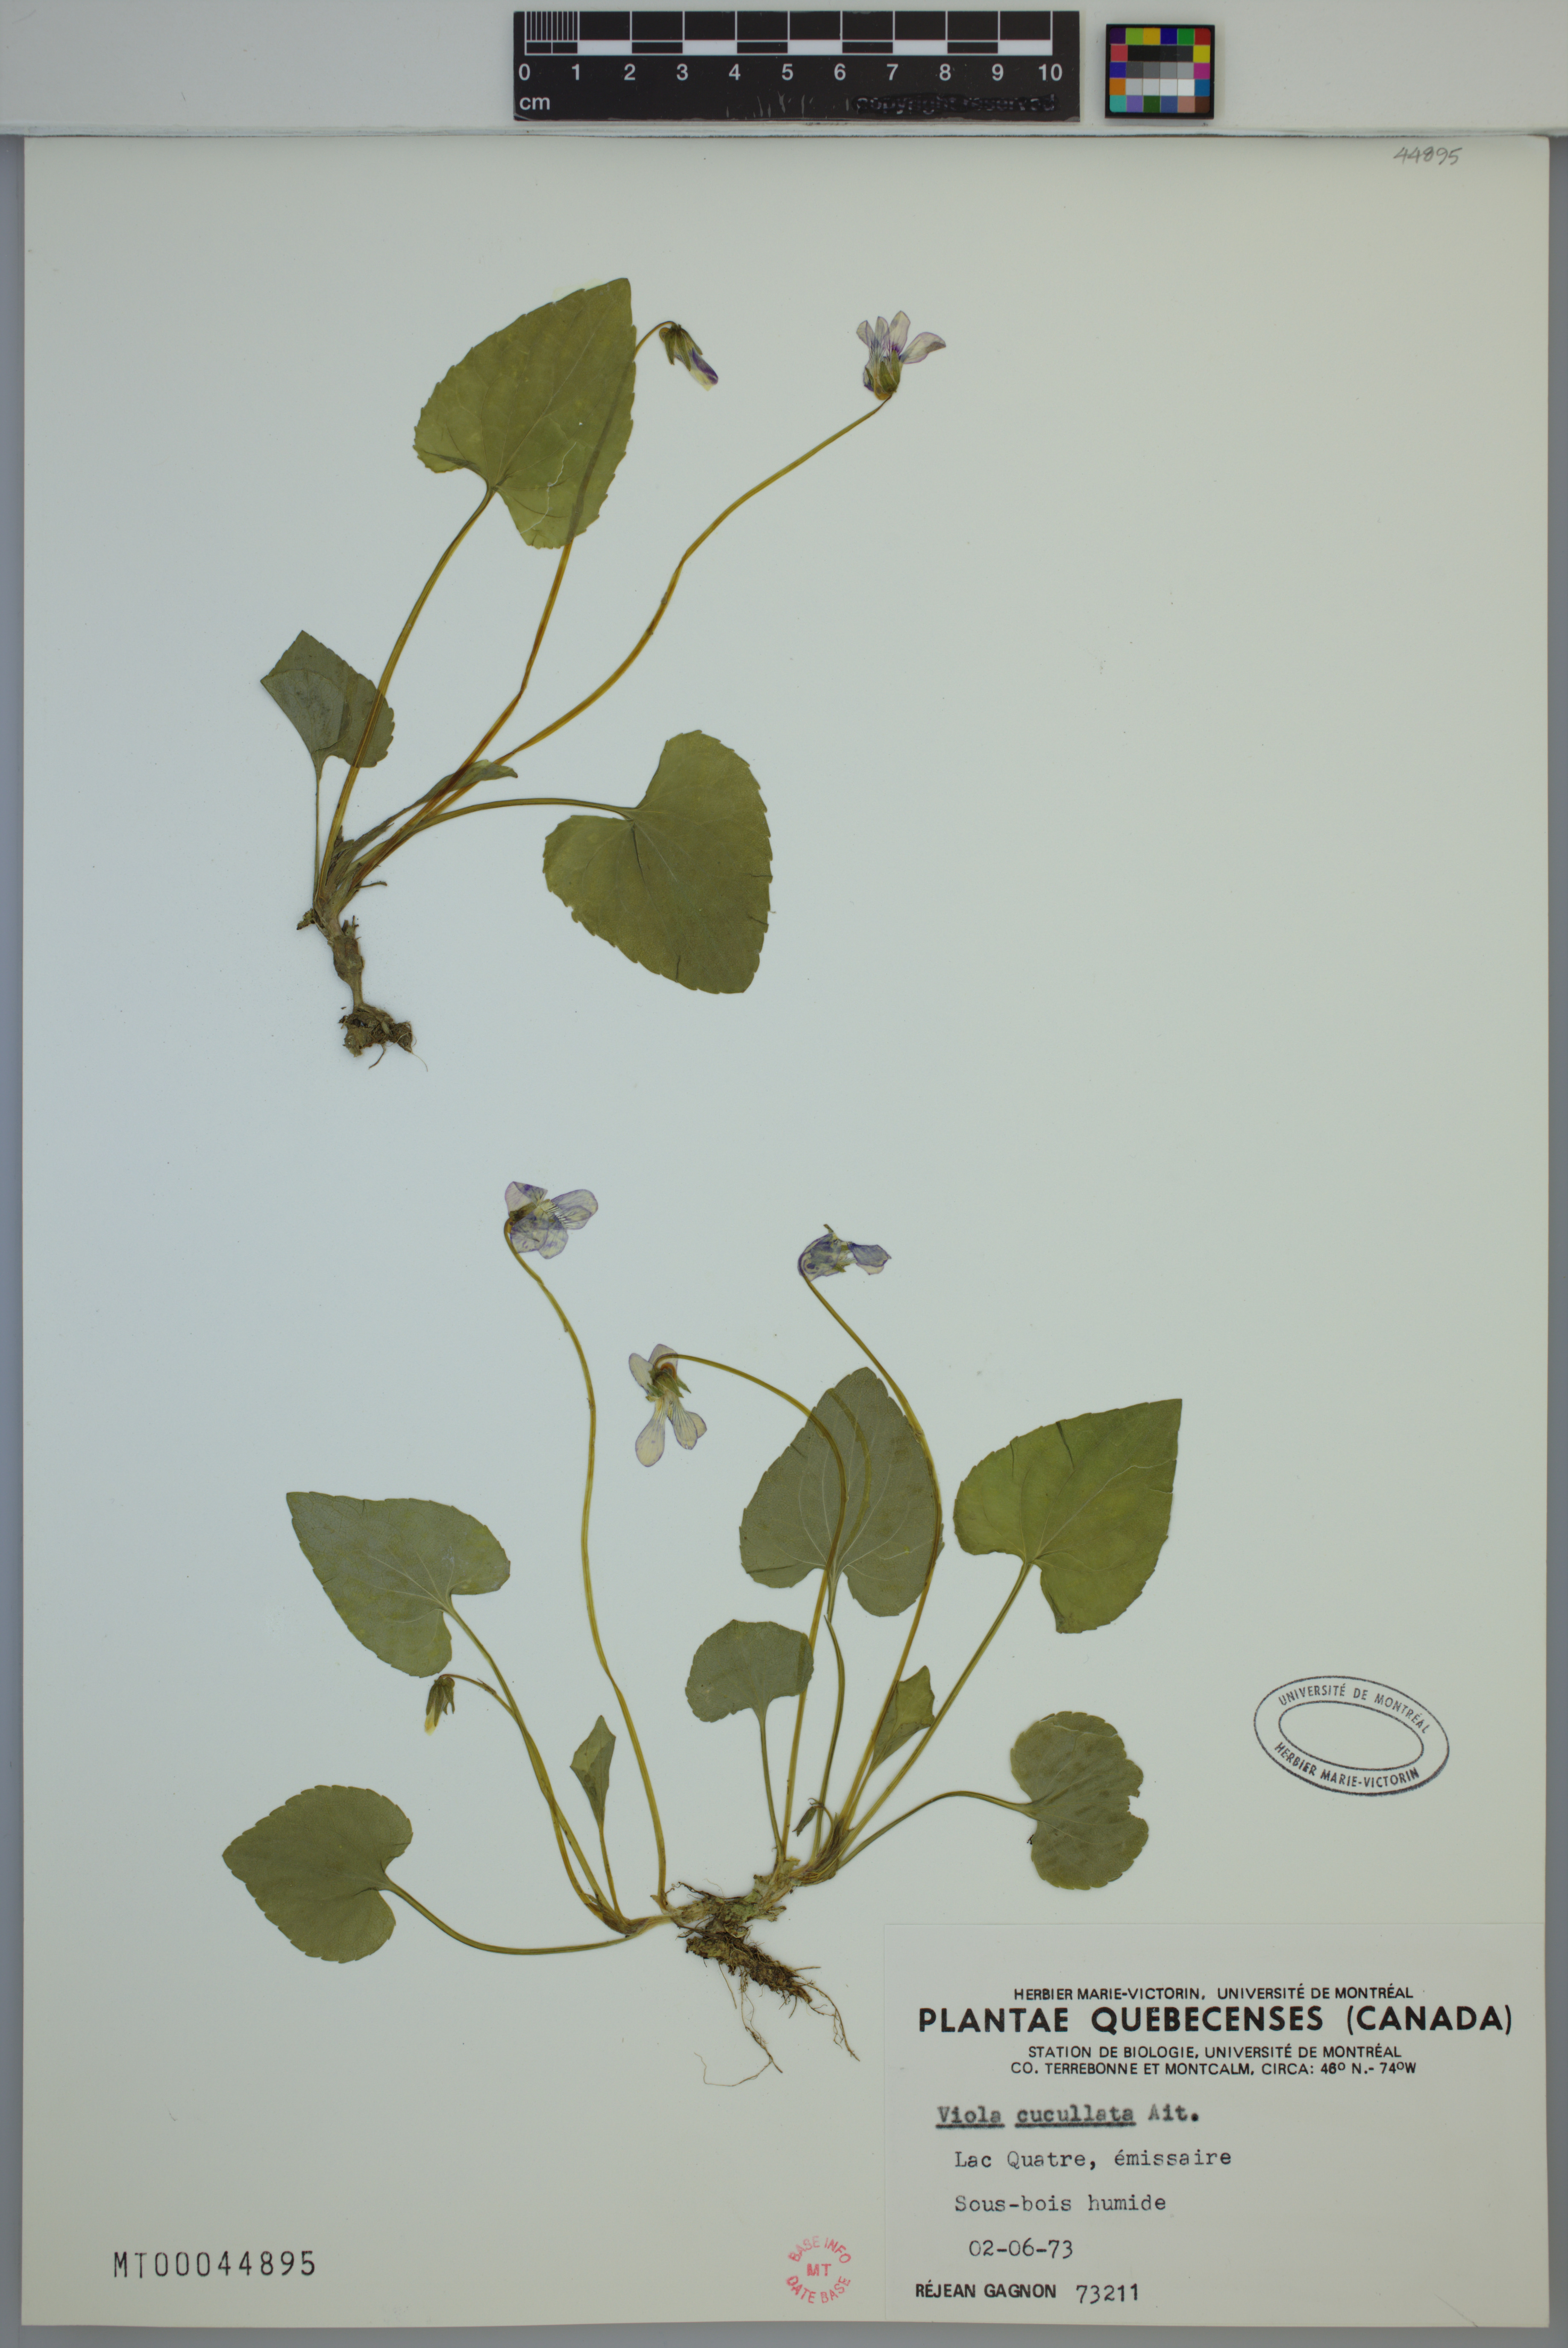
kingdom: Plantae
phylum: Tracheophyta
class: Magnoliopsida
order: Malpighiales
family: Violaceae
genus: Viola
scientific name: Viola cucullata
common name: Marsh blue violet
